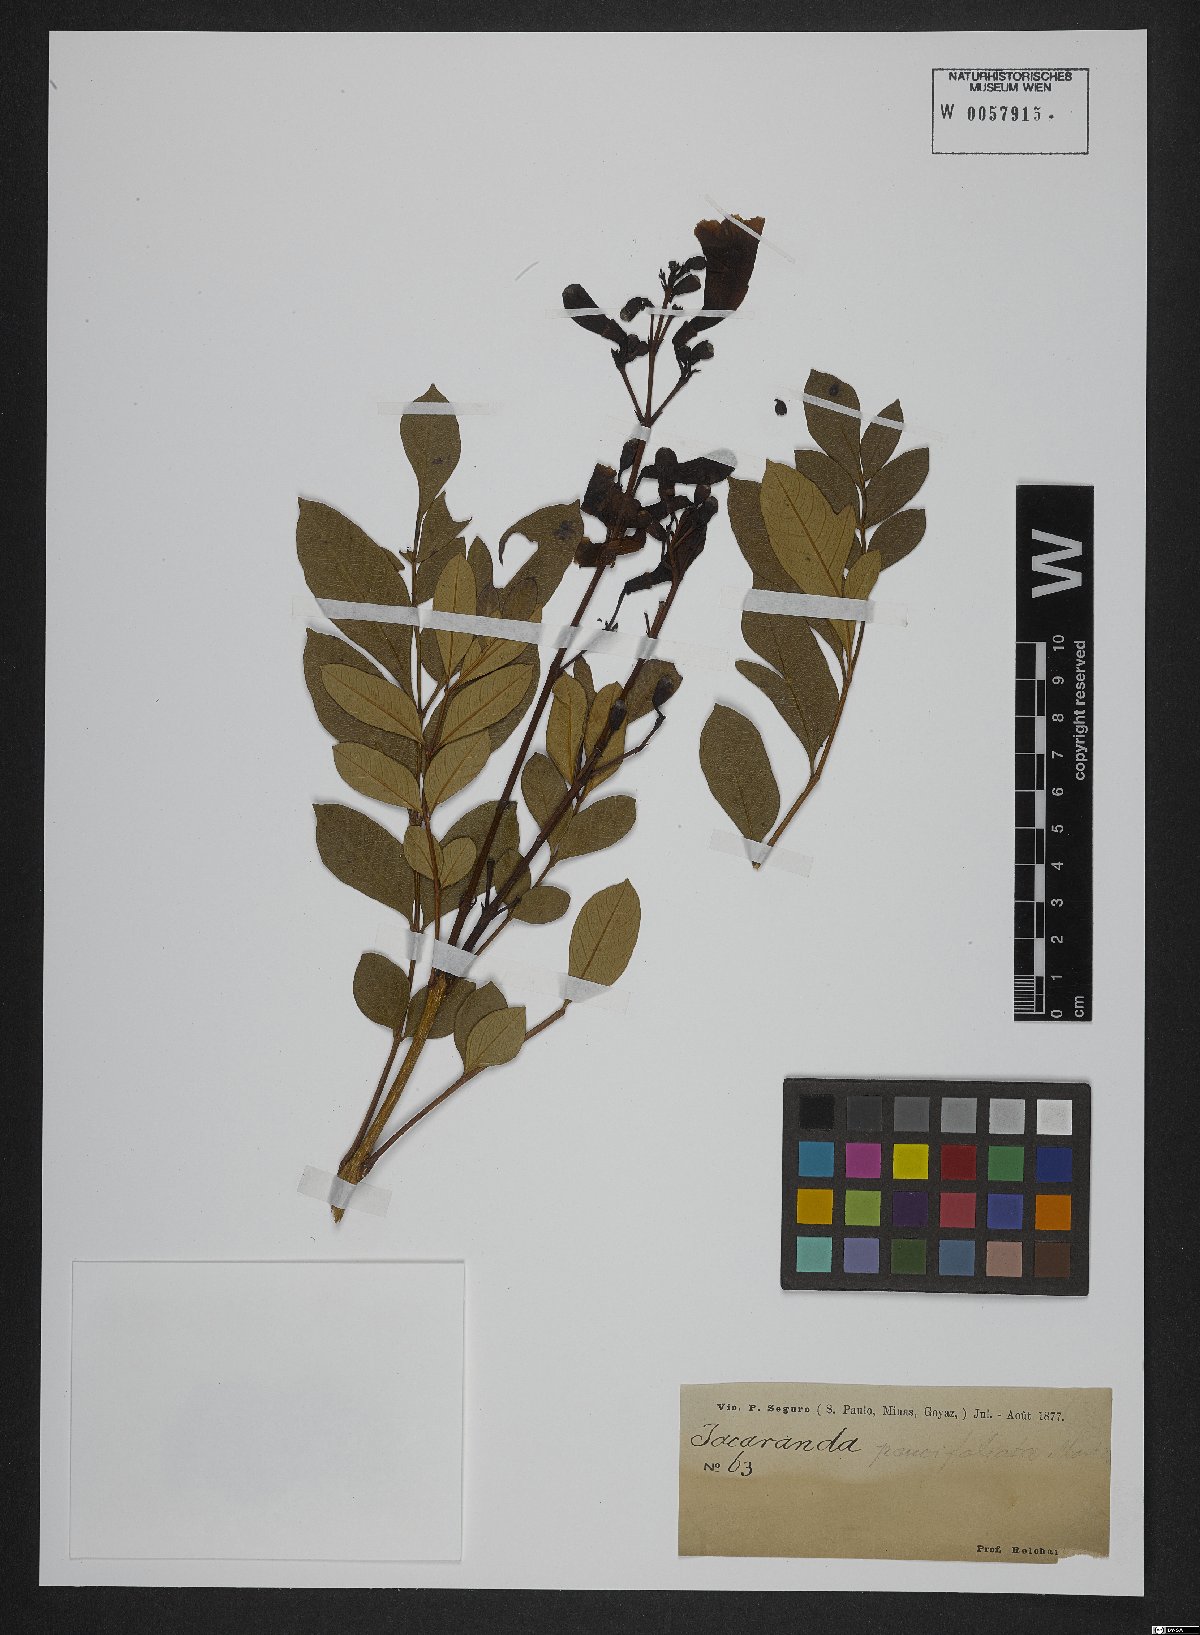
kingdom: Plantae
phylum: Tracheophyta
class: Magnoliopsida
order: Lamiales
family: Bignoniaceae
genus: Jacaranda
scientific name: Jacaranda
